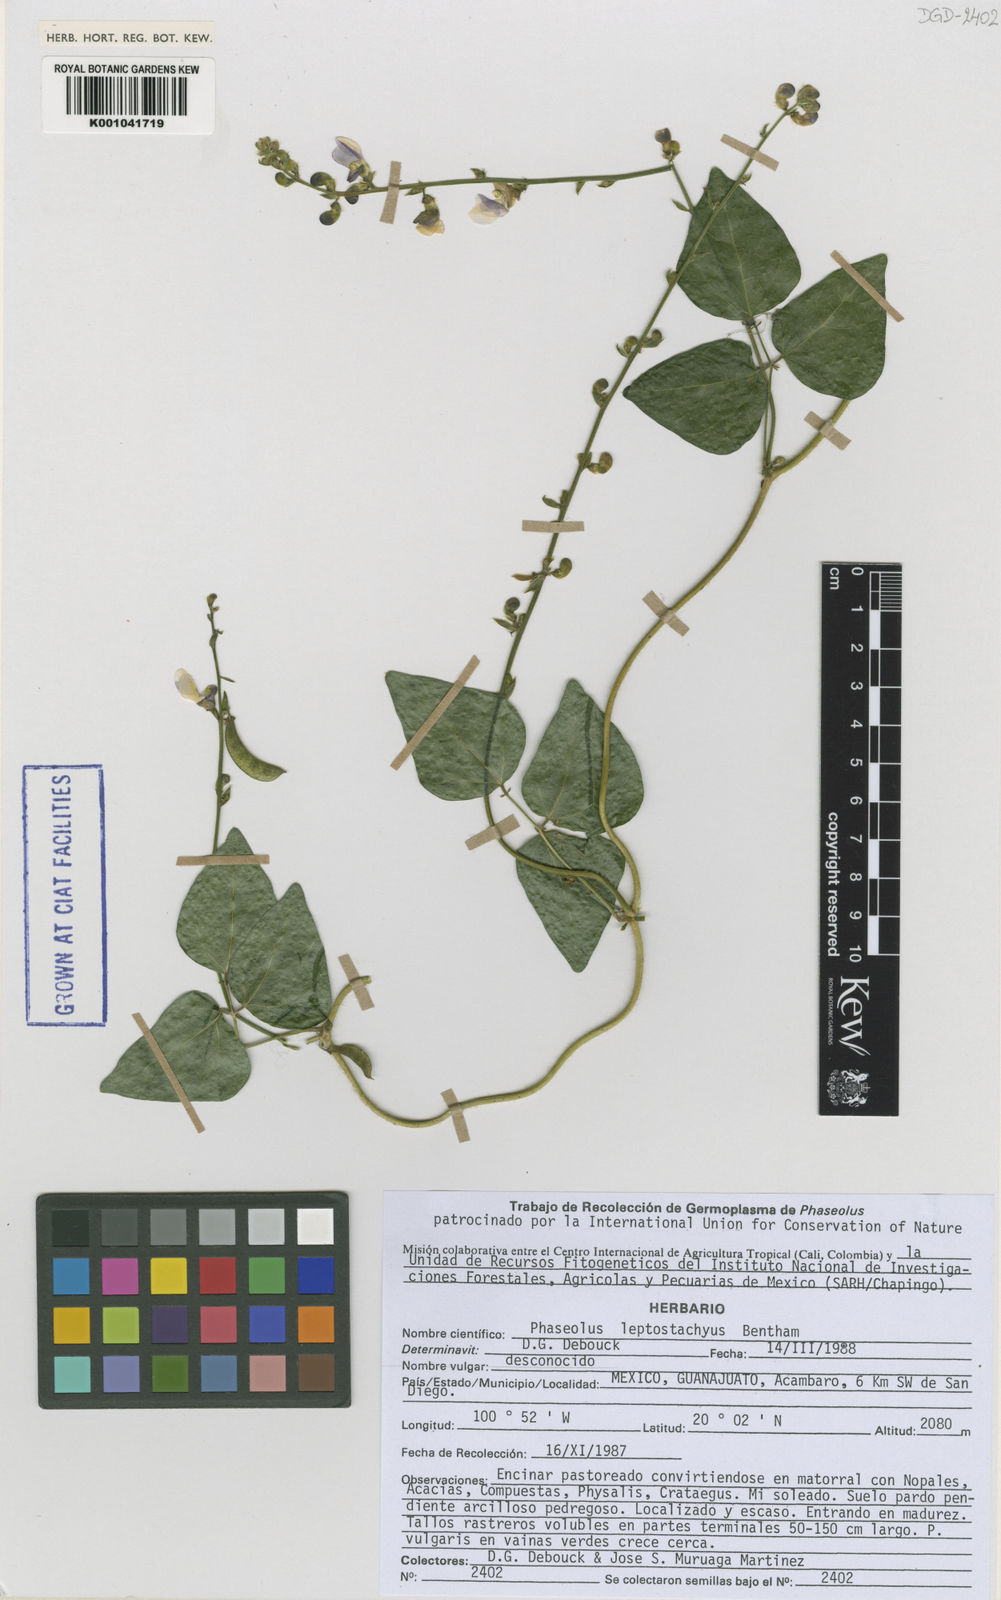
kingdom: Plantae
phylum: Tracheophyta
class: Magnoliopsida
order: Fabales
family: Fabaceae
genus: Phaseolus
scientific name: Phaseolus leptostachyus
